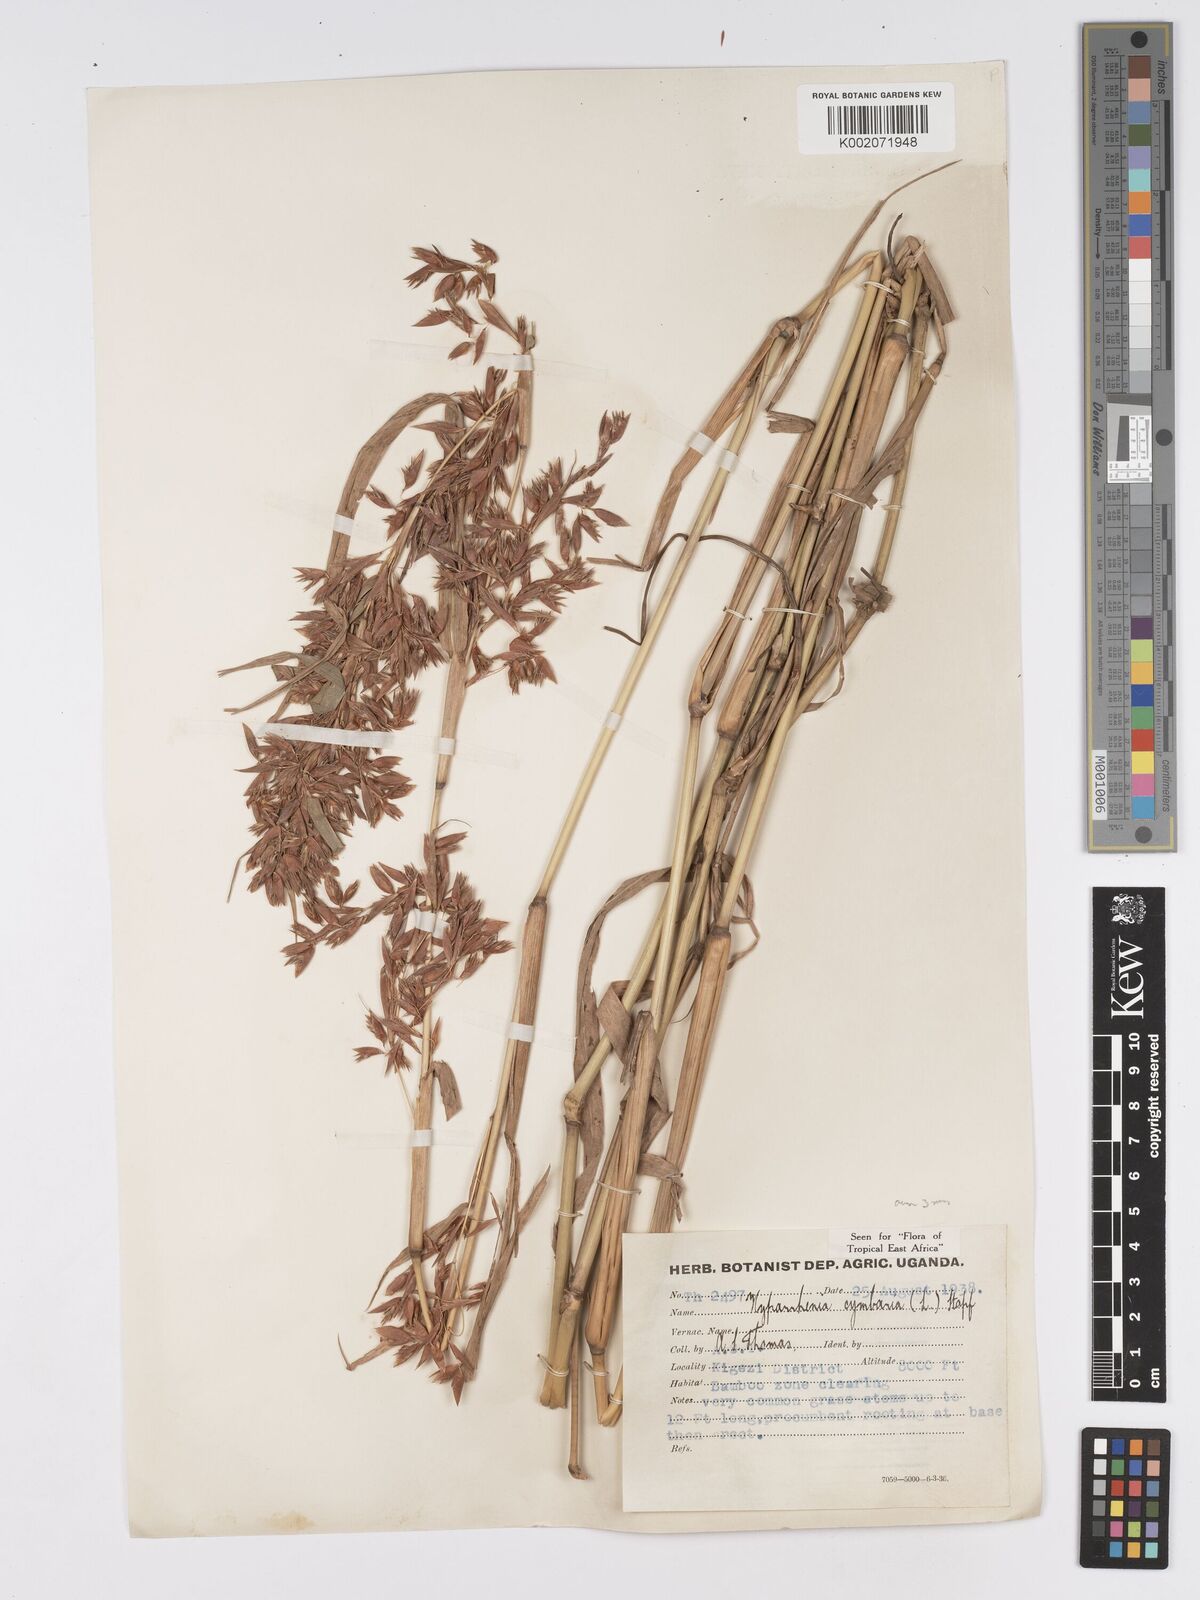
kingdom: Plantae
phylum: Tracheophyta
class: Liliopsida
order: Poales
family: Poaceae
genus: Hyparrhenia
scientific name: Hyparrhenia cymbaria
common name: Boat thatching grass
